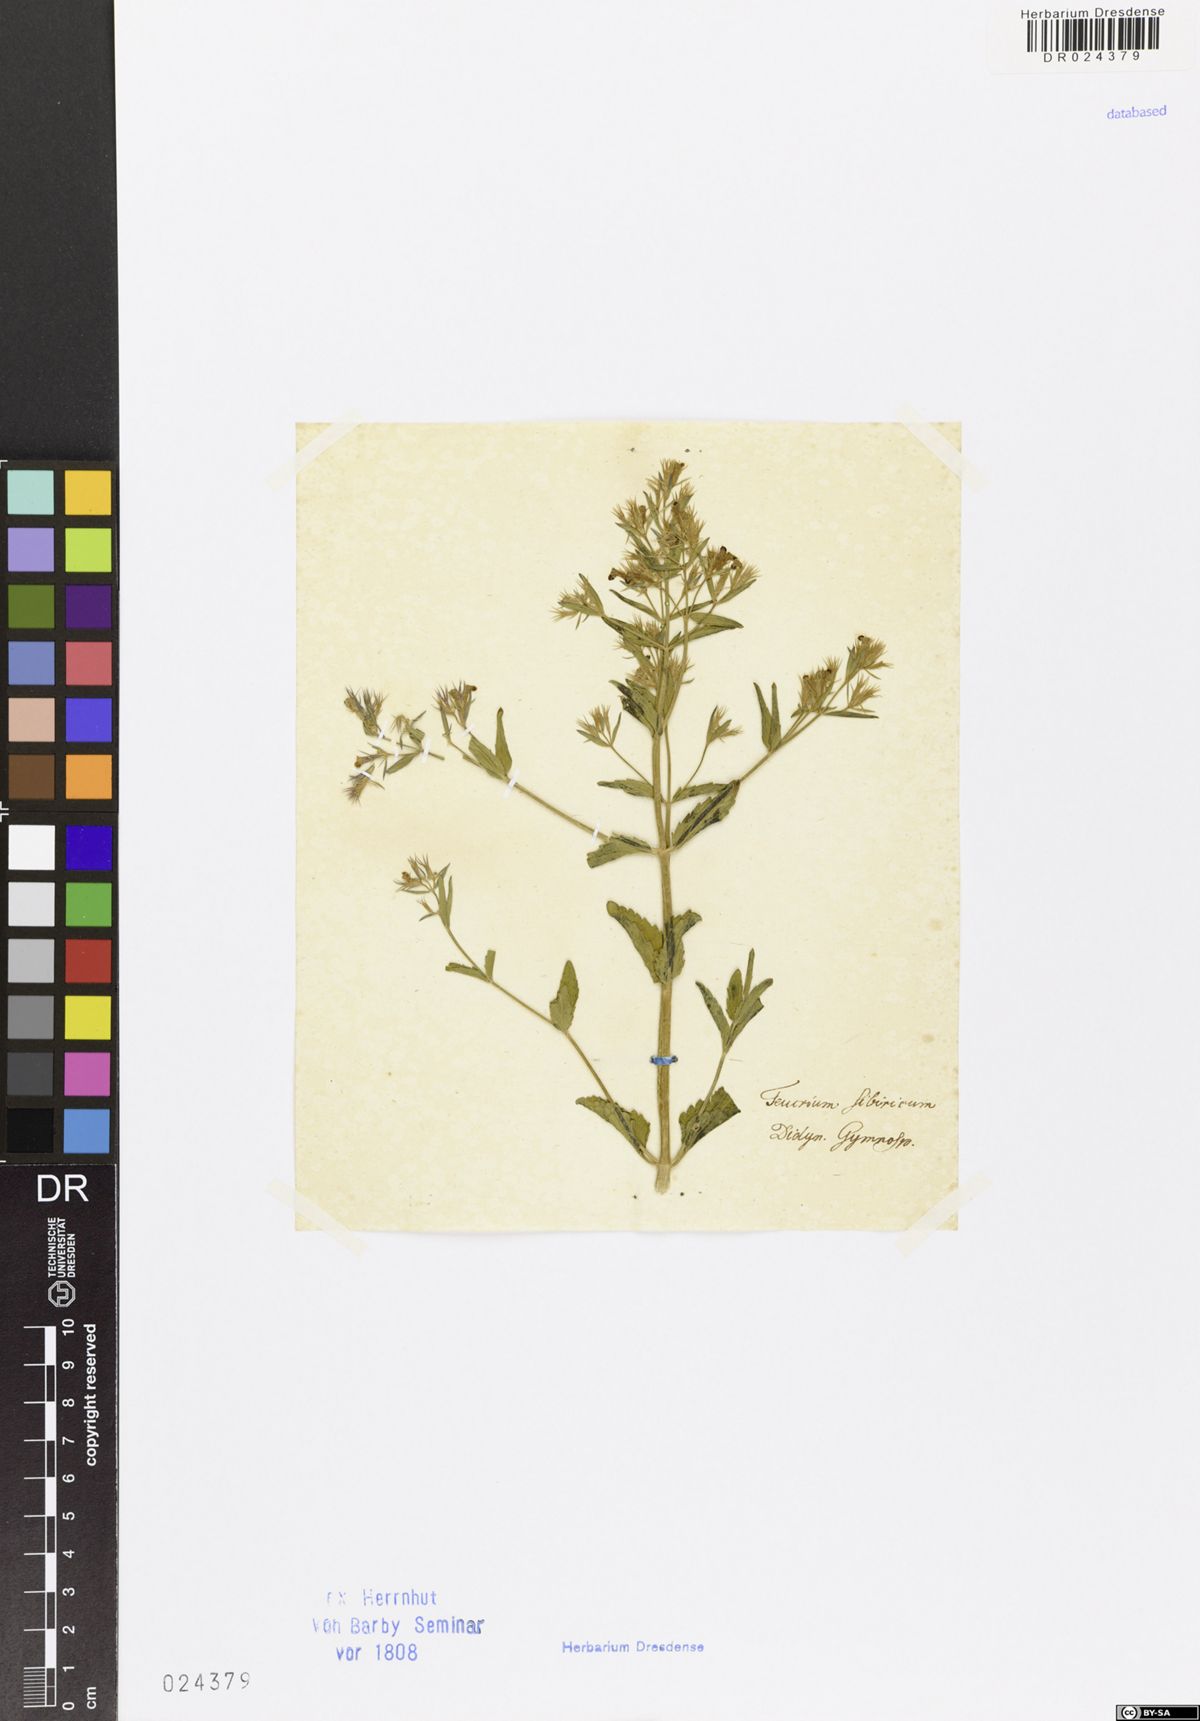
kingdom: Plantae
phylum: Tracheophyta
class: Magnoliopsida
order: Lamiales
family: Lamiaceae
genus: Nepeta
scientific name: Nepeta ucranica
